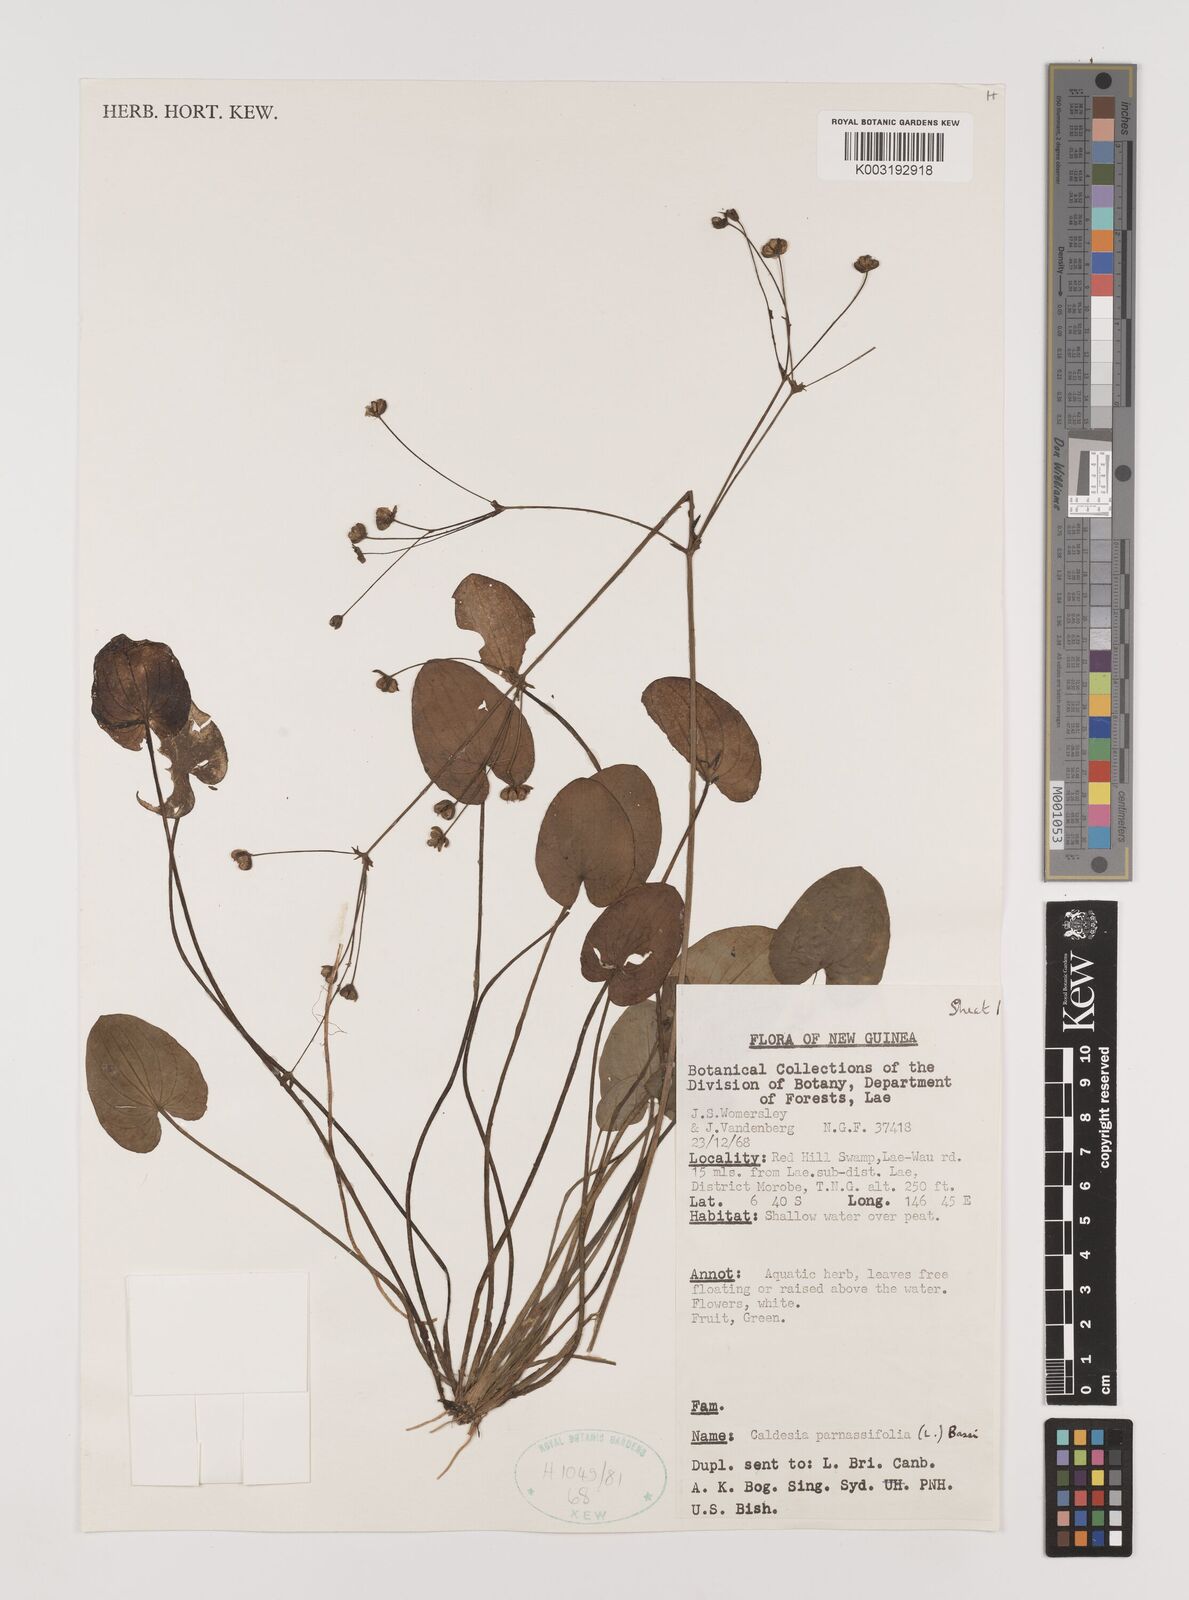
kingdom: Plantae
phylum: Tracheophyta
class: Liliopsida
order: Alismatales
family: Alismataceae
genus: Caldesia
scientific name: Caldesia parnassifolia
